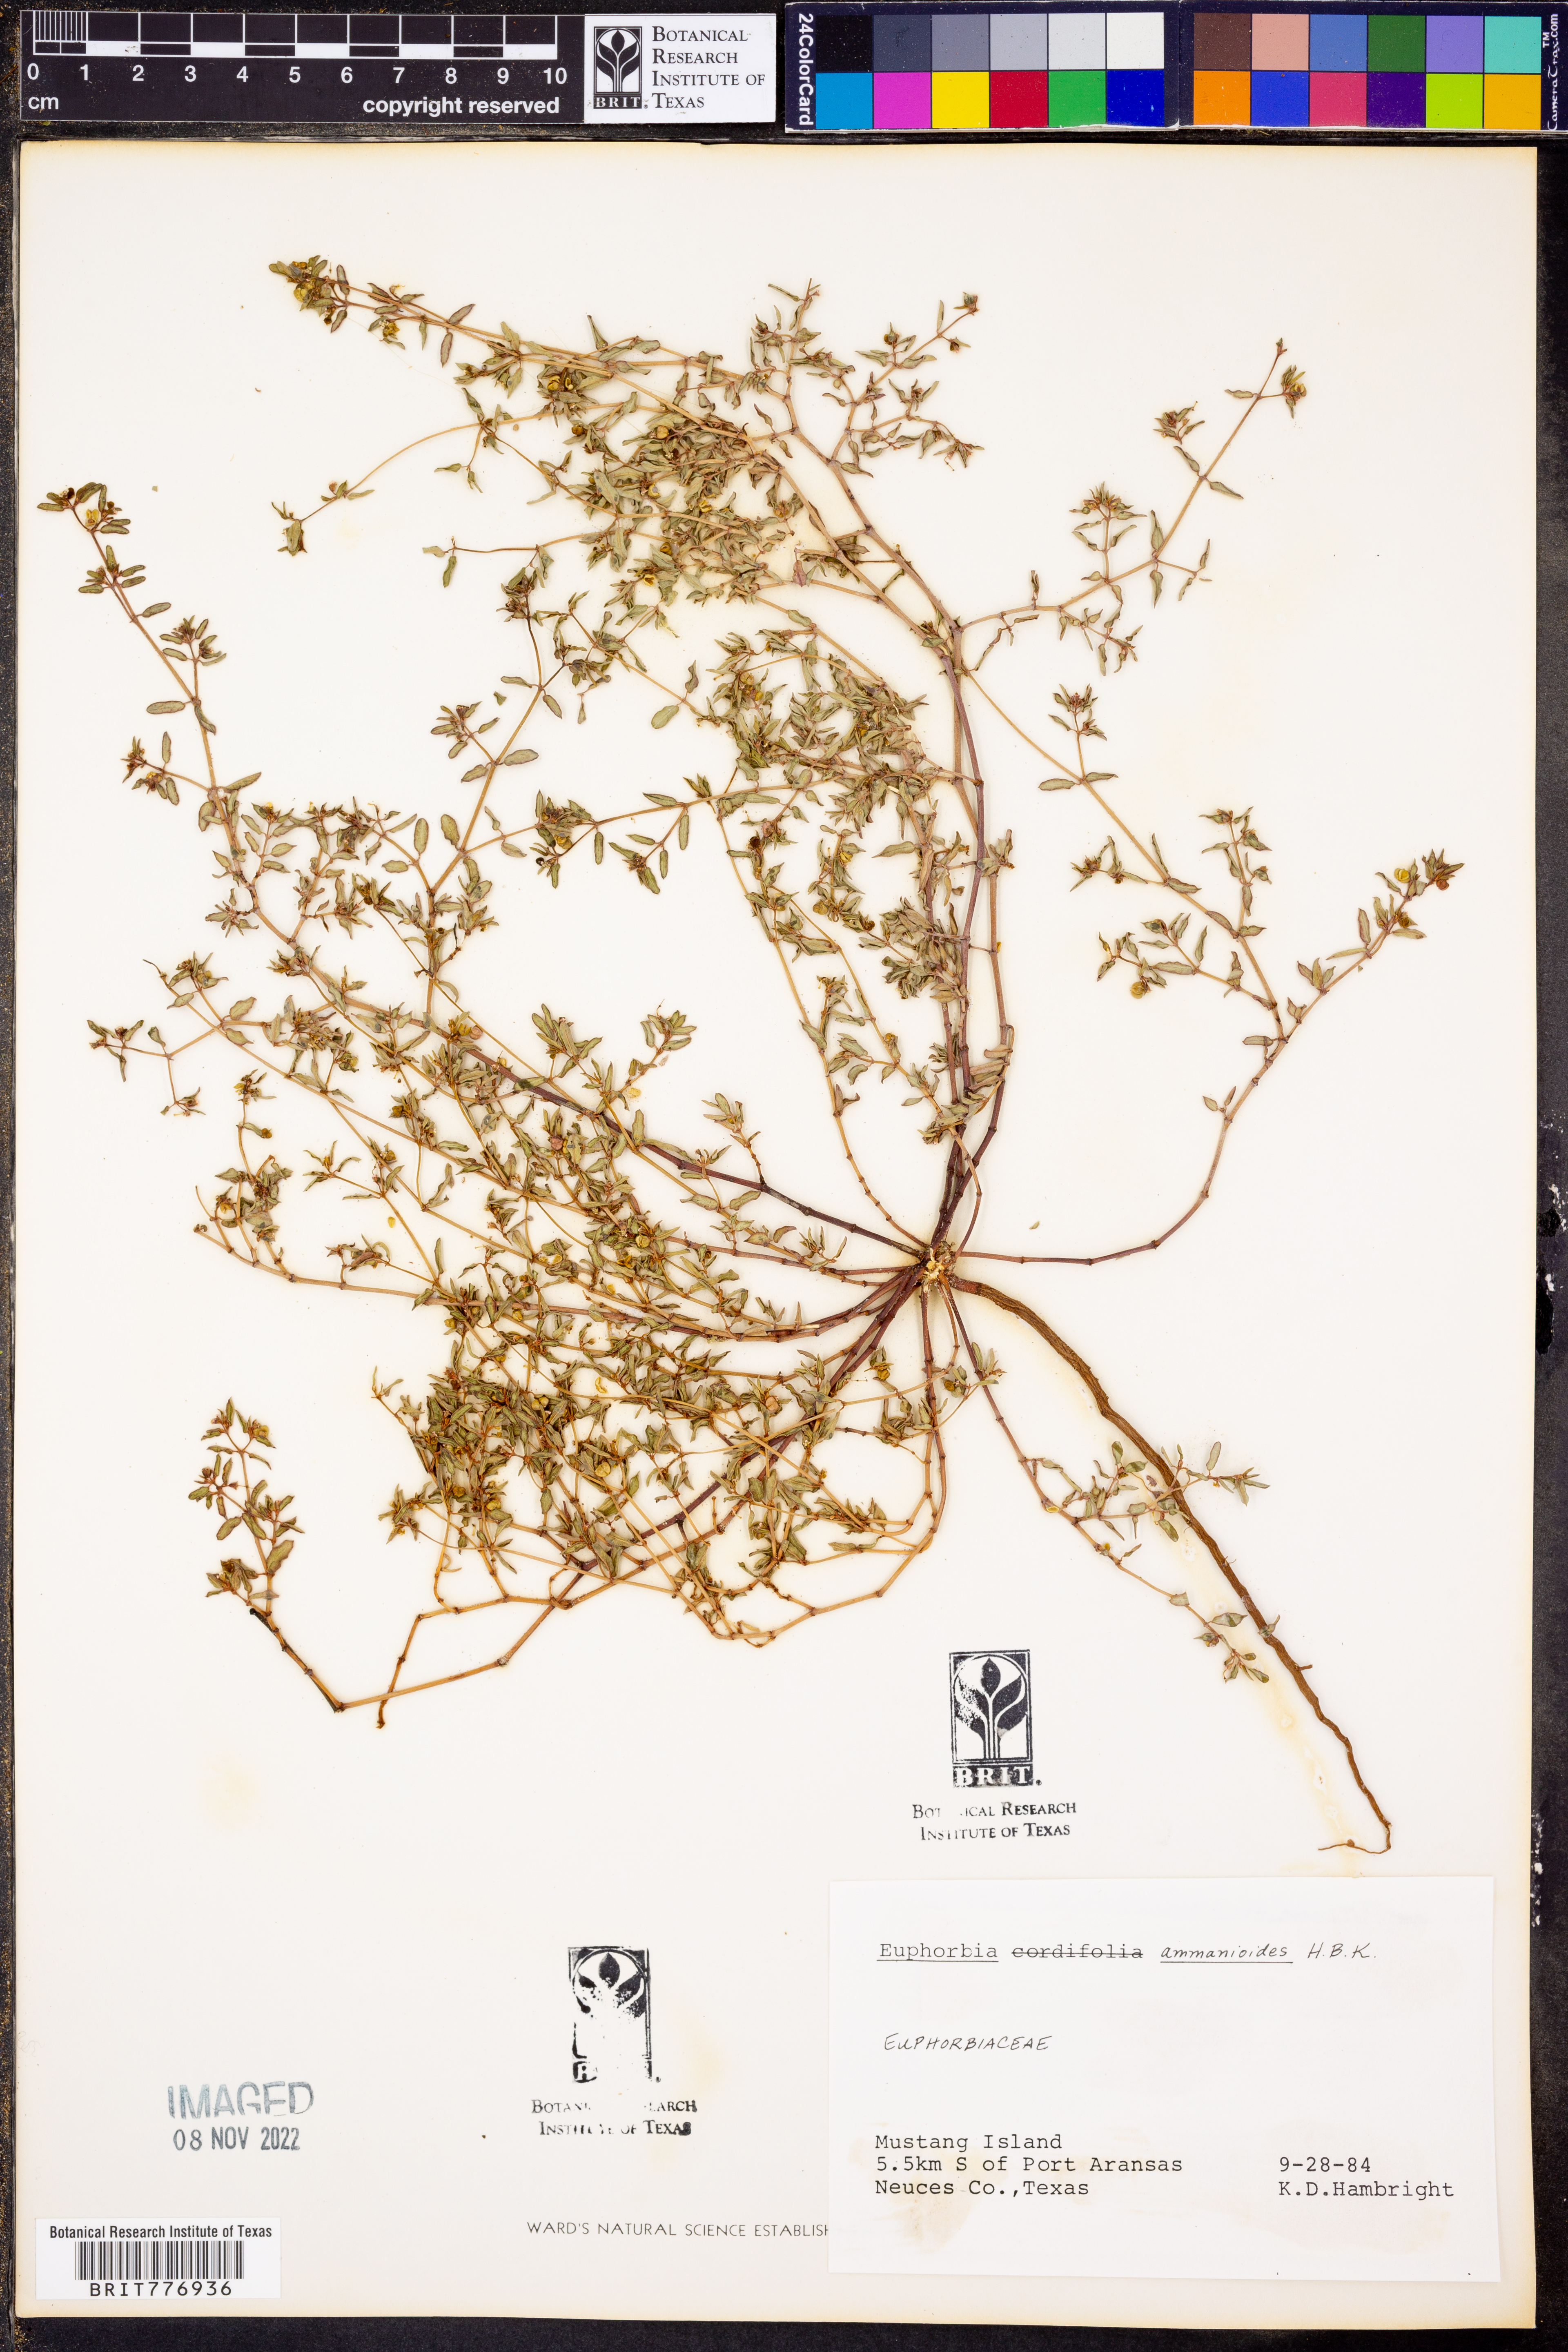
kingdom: Plantae
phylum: Tracheophyta
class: Magnoliopsida
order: Malpighiales
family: Euphorbiaceae
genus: Euphorbia
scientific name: Euphorbia bombensis
